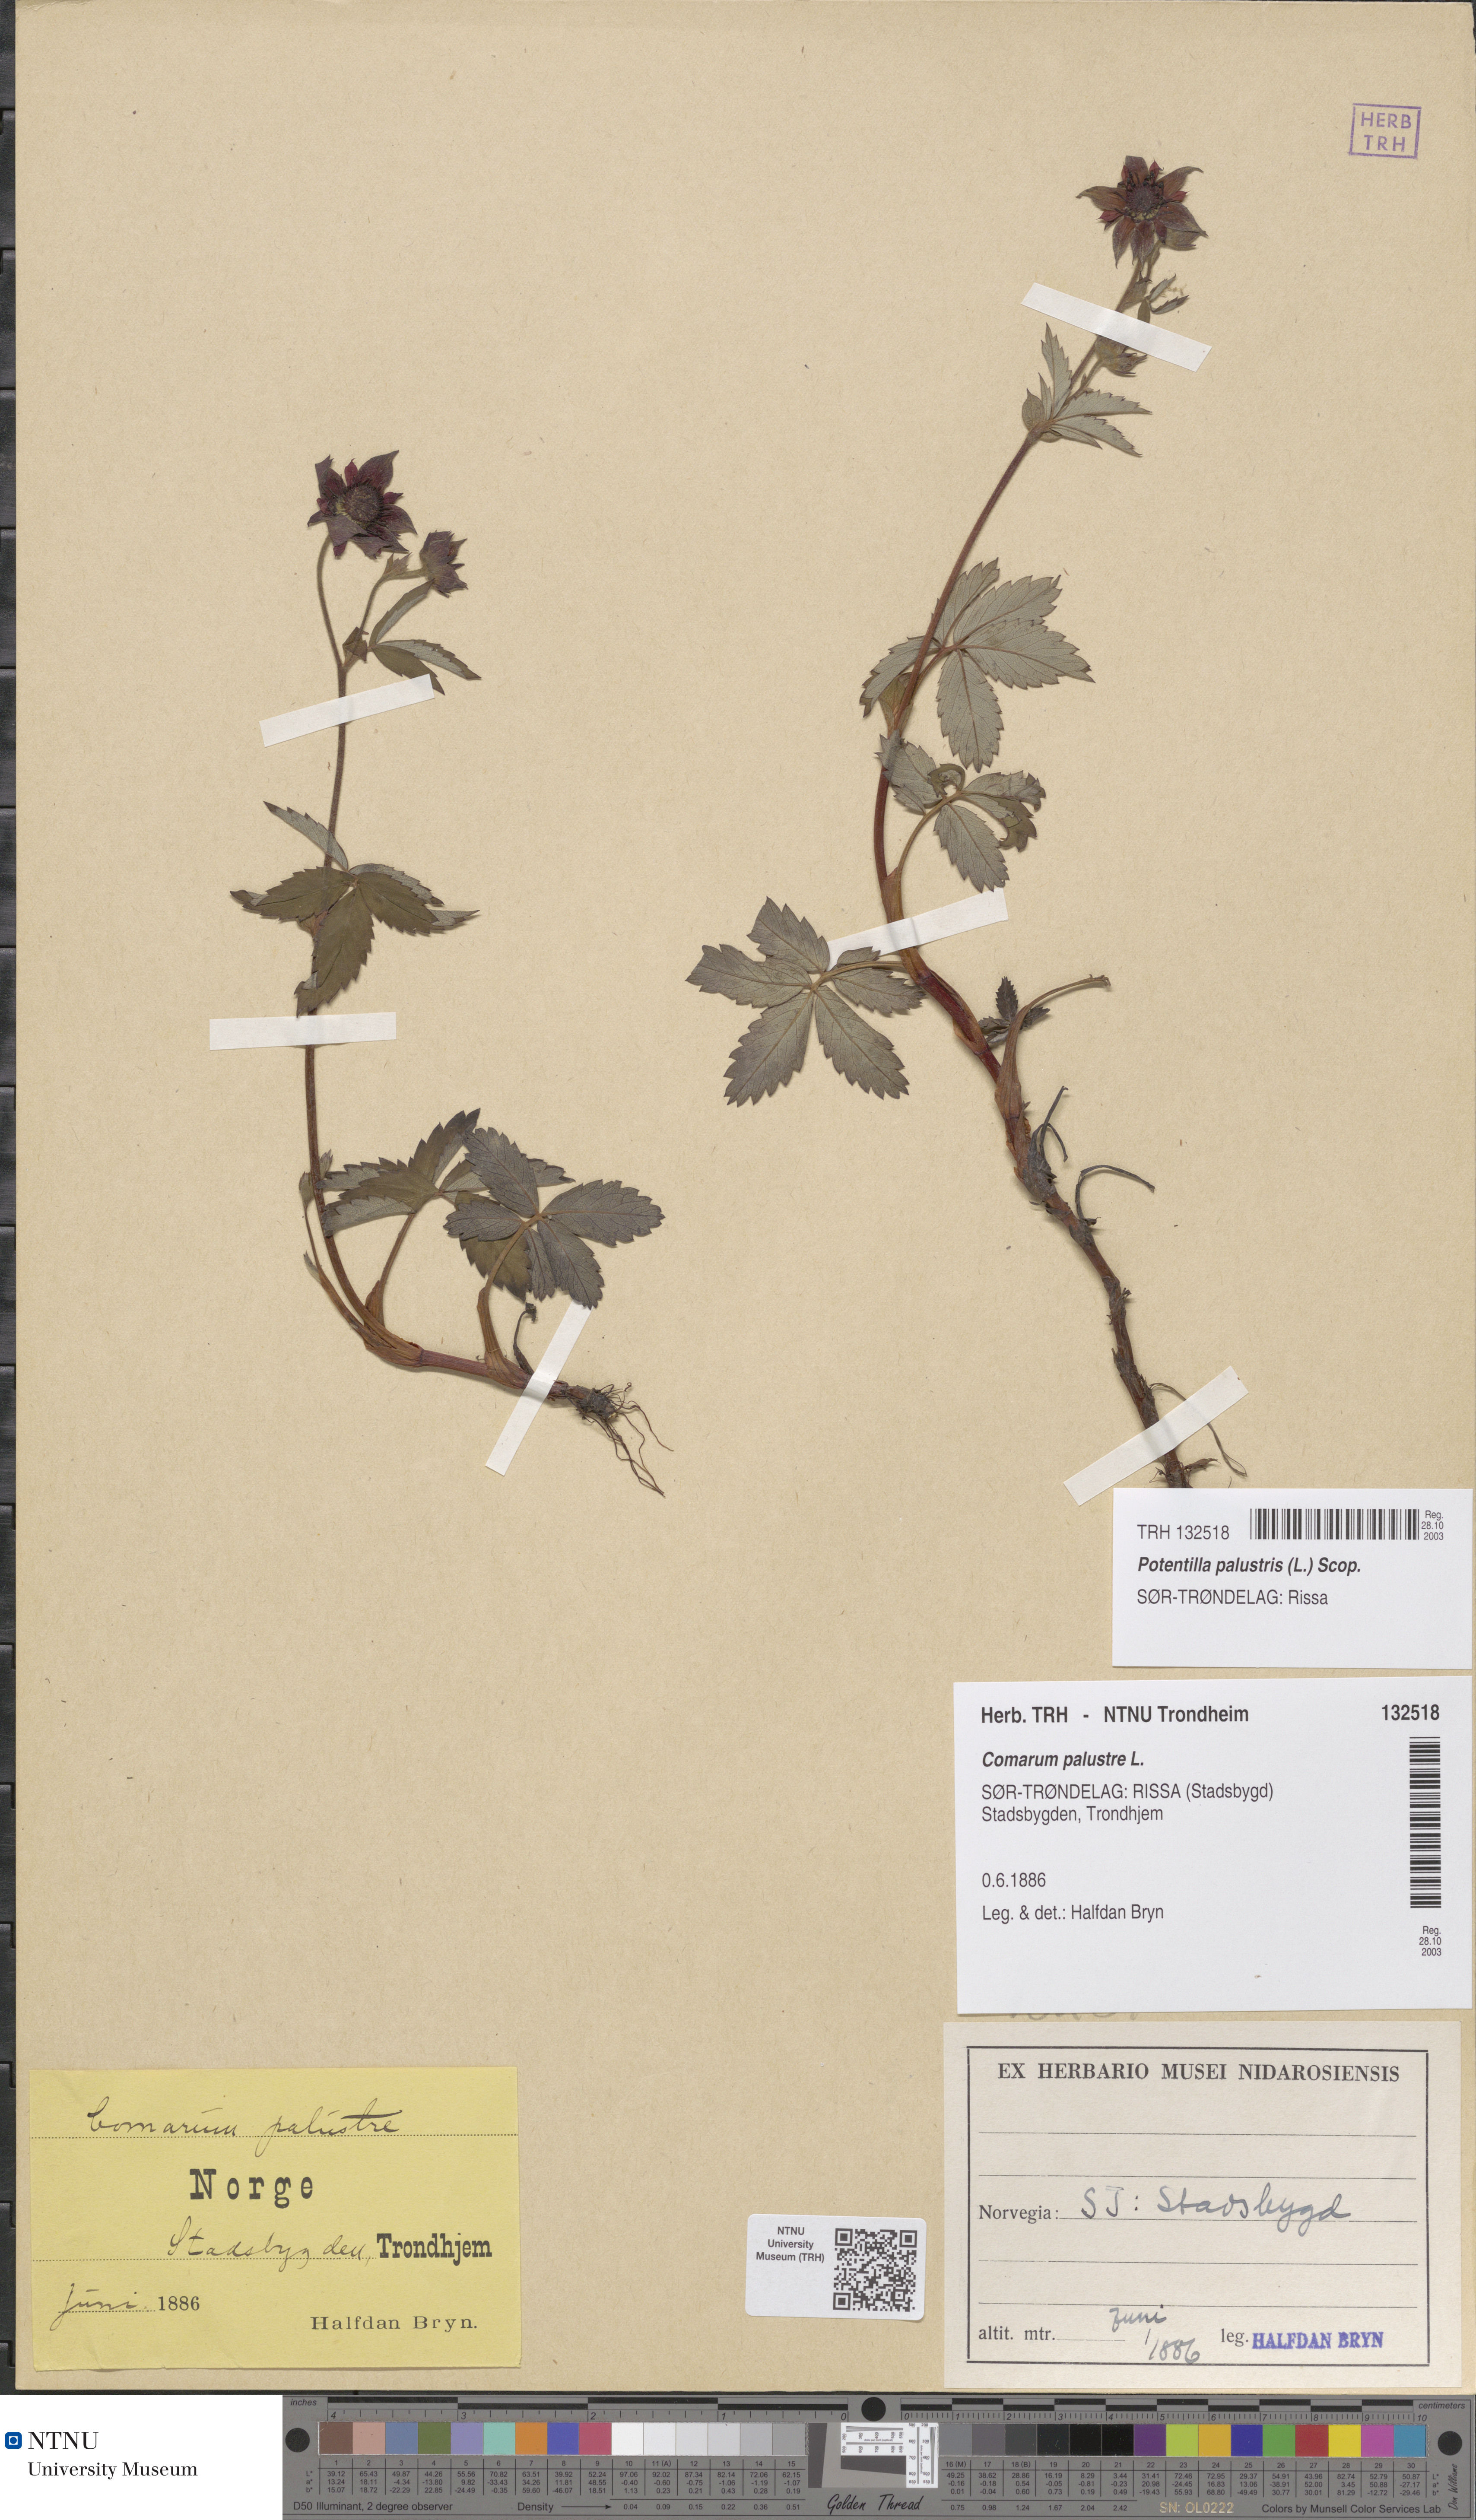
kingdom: Plantae
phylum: Tracheophyta
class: Magnoliopsida
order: Rosales
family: Rosaceae
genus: Comarum
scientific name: Comarum palustre
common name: Marsh cinquefoil
